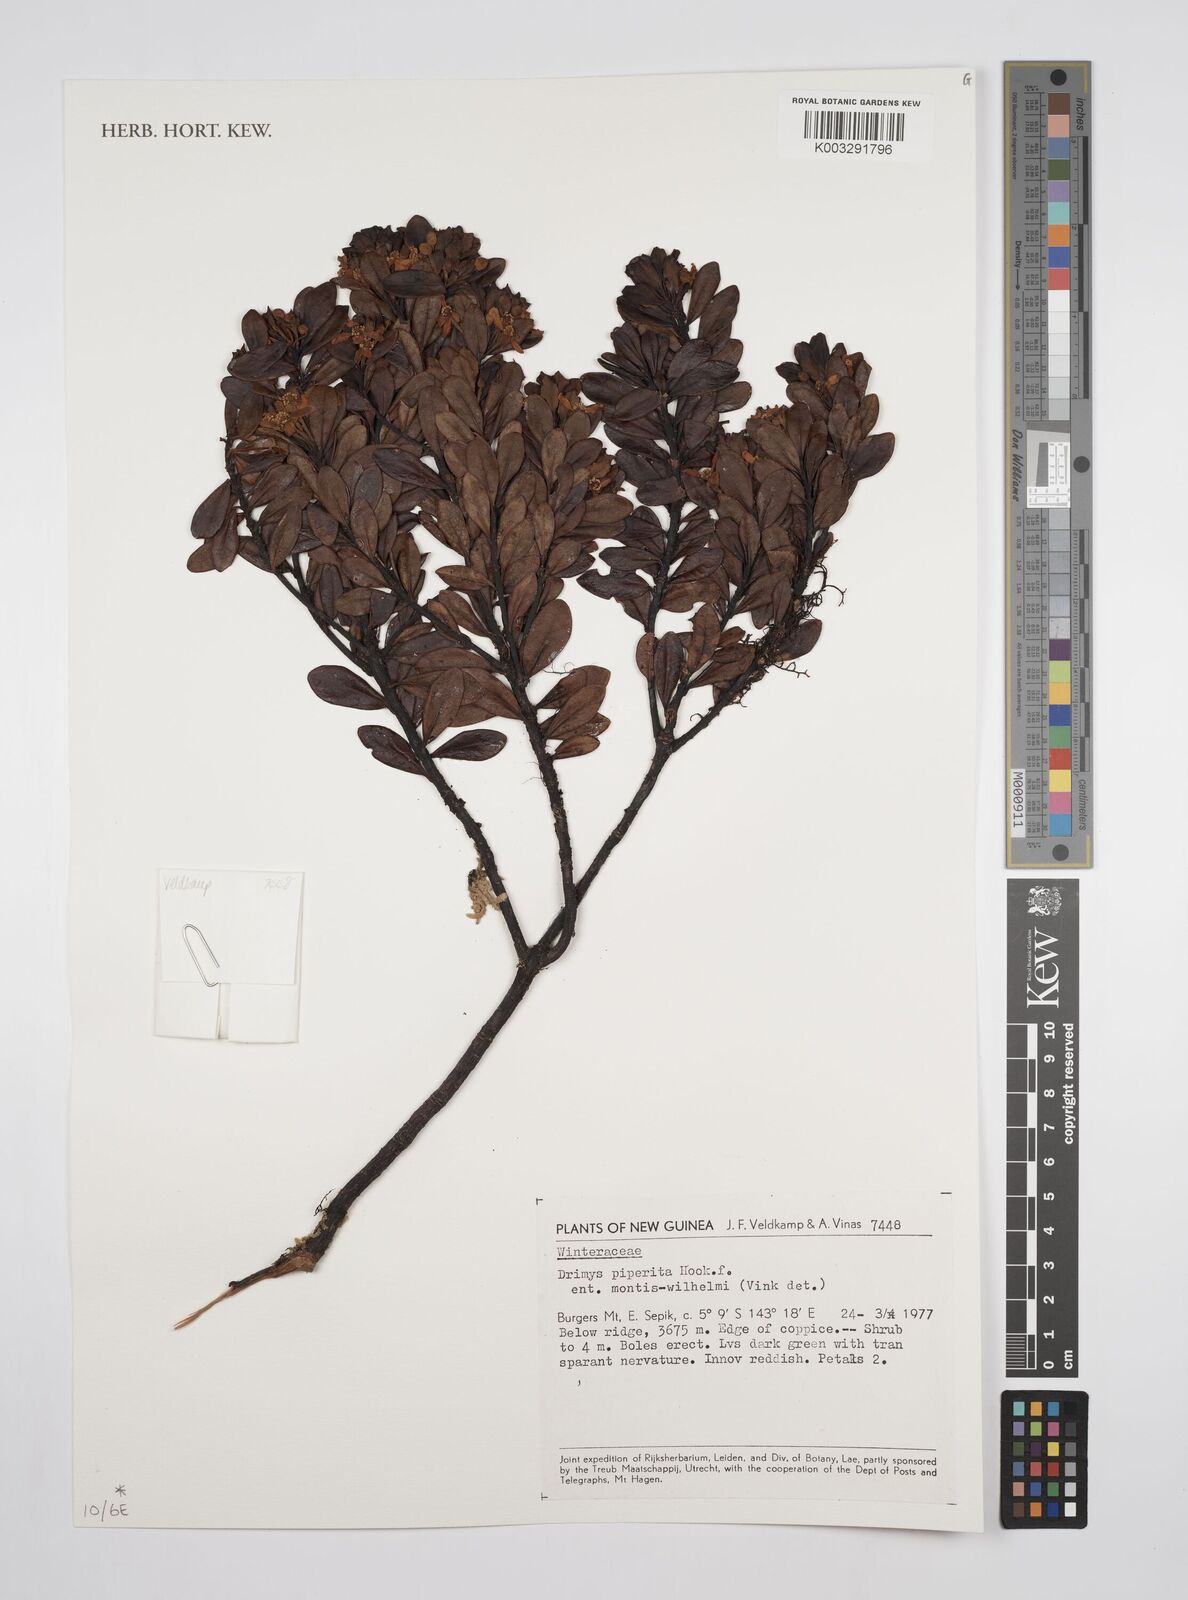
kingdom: Plantae
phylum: Tracheophyta
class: Magnoliopsida
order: Canellales
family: Winteraceae
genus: Drimys
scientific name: Drimys piperita
